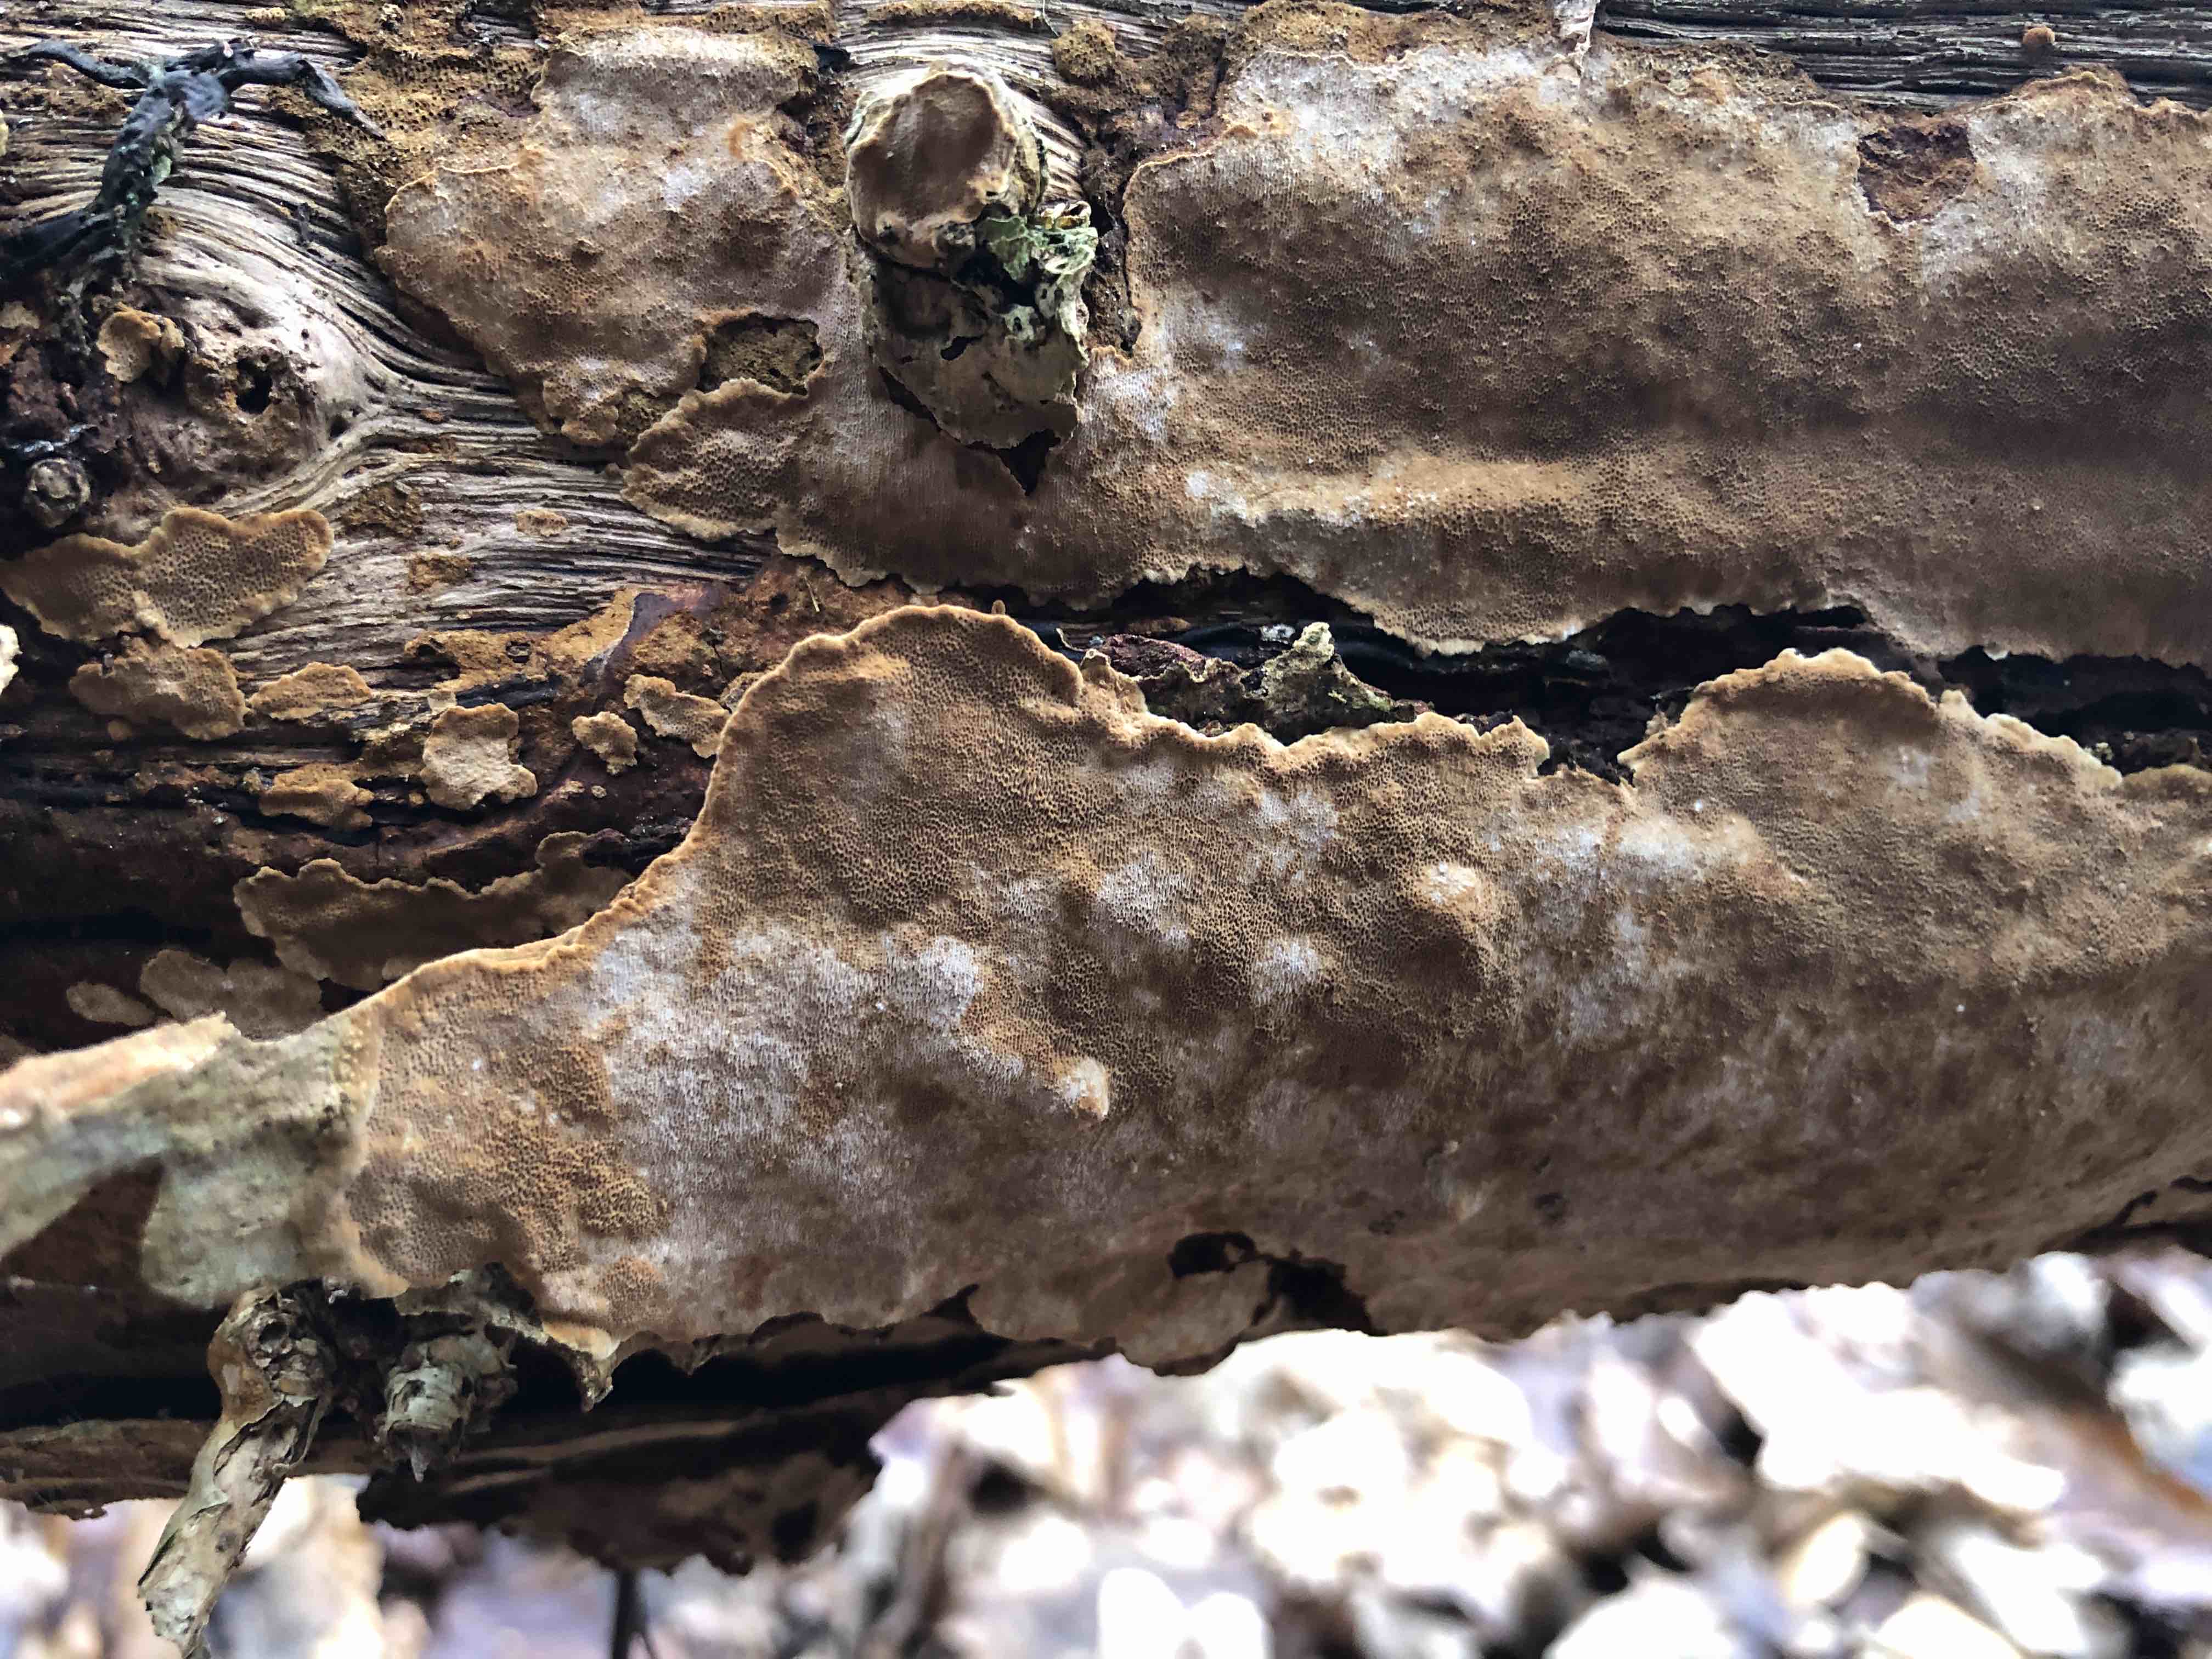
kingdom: Fungi
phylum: Basidiomycota
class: Agaricomycetes
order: Hymenochaetales
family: Hymenochaetaceae
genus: Fuscoporia
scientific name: Fuscoporia ferrea
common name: skorpe-ildporesvamp
